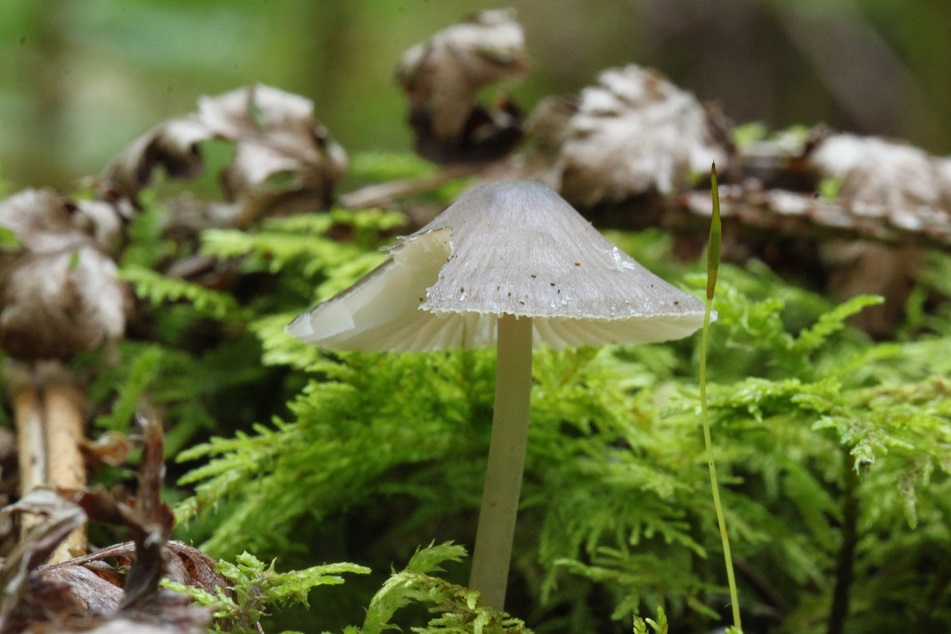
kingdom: Fungi
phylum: Basidiomycota
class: Agaricomycetes
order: Agaricales
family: Mycenaceae
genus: Mycena
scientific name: Mycena abramsii
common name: sommer-huesvamp
